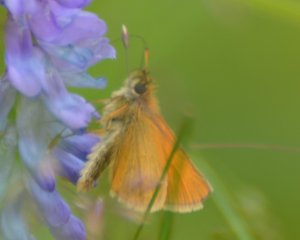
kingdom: Animalia
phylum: Arthropoda
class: Insecta
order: Lepidoptera
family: Hesperiidae
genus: Thymelicus
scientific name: Thymelicus lineola
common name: European Skipper
